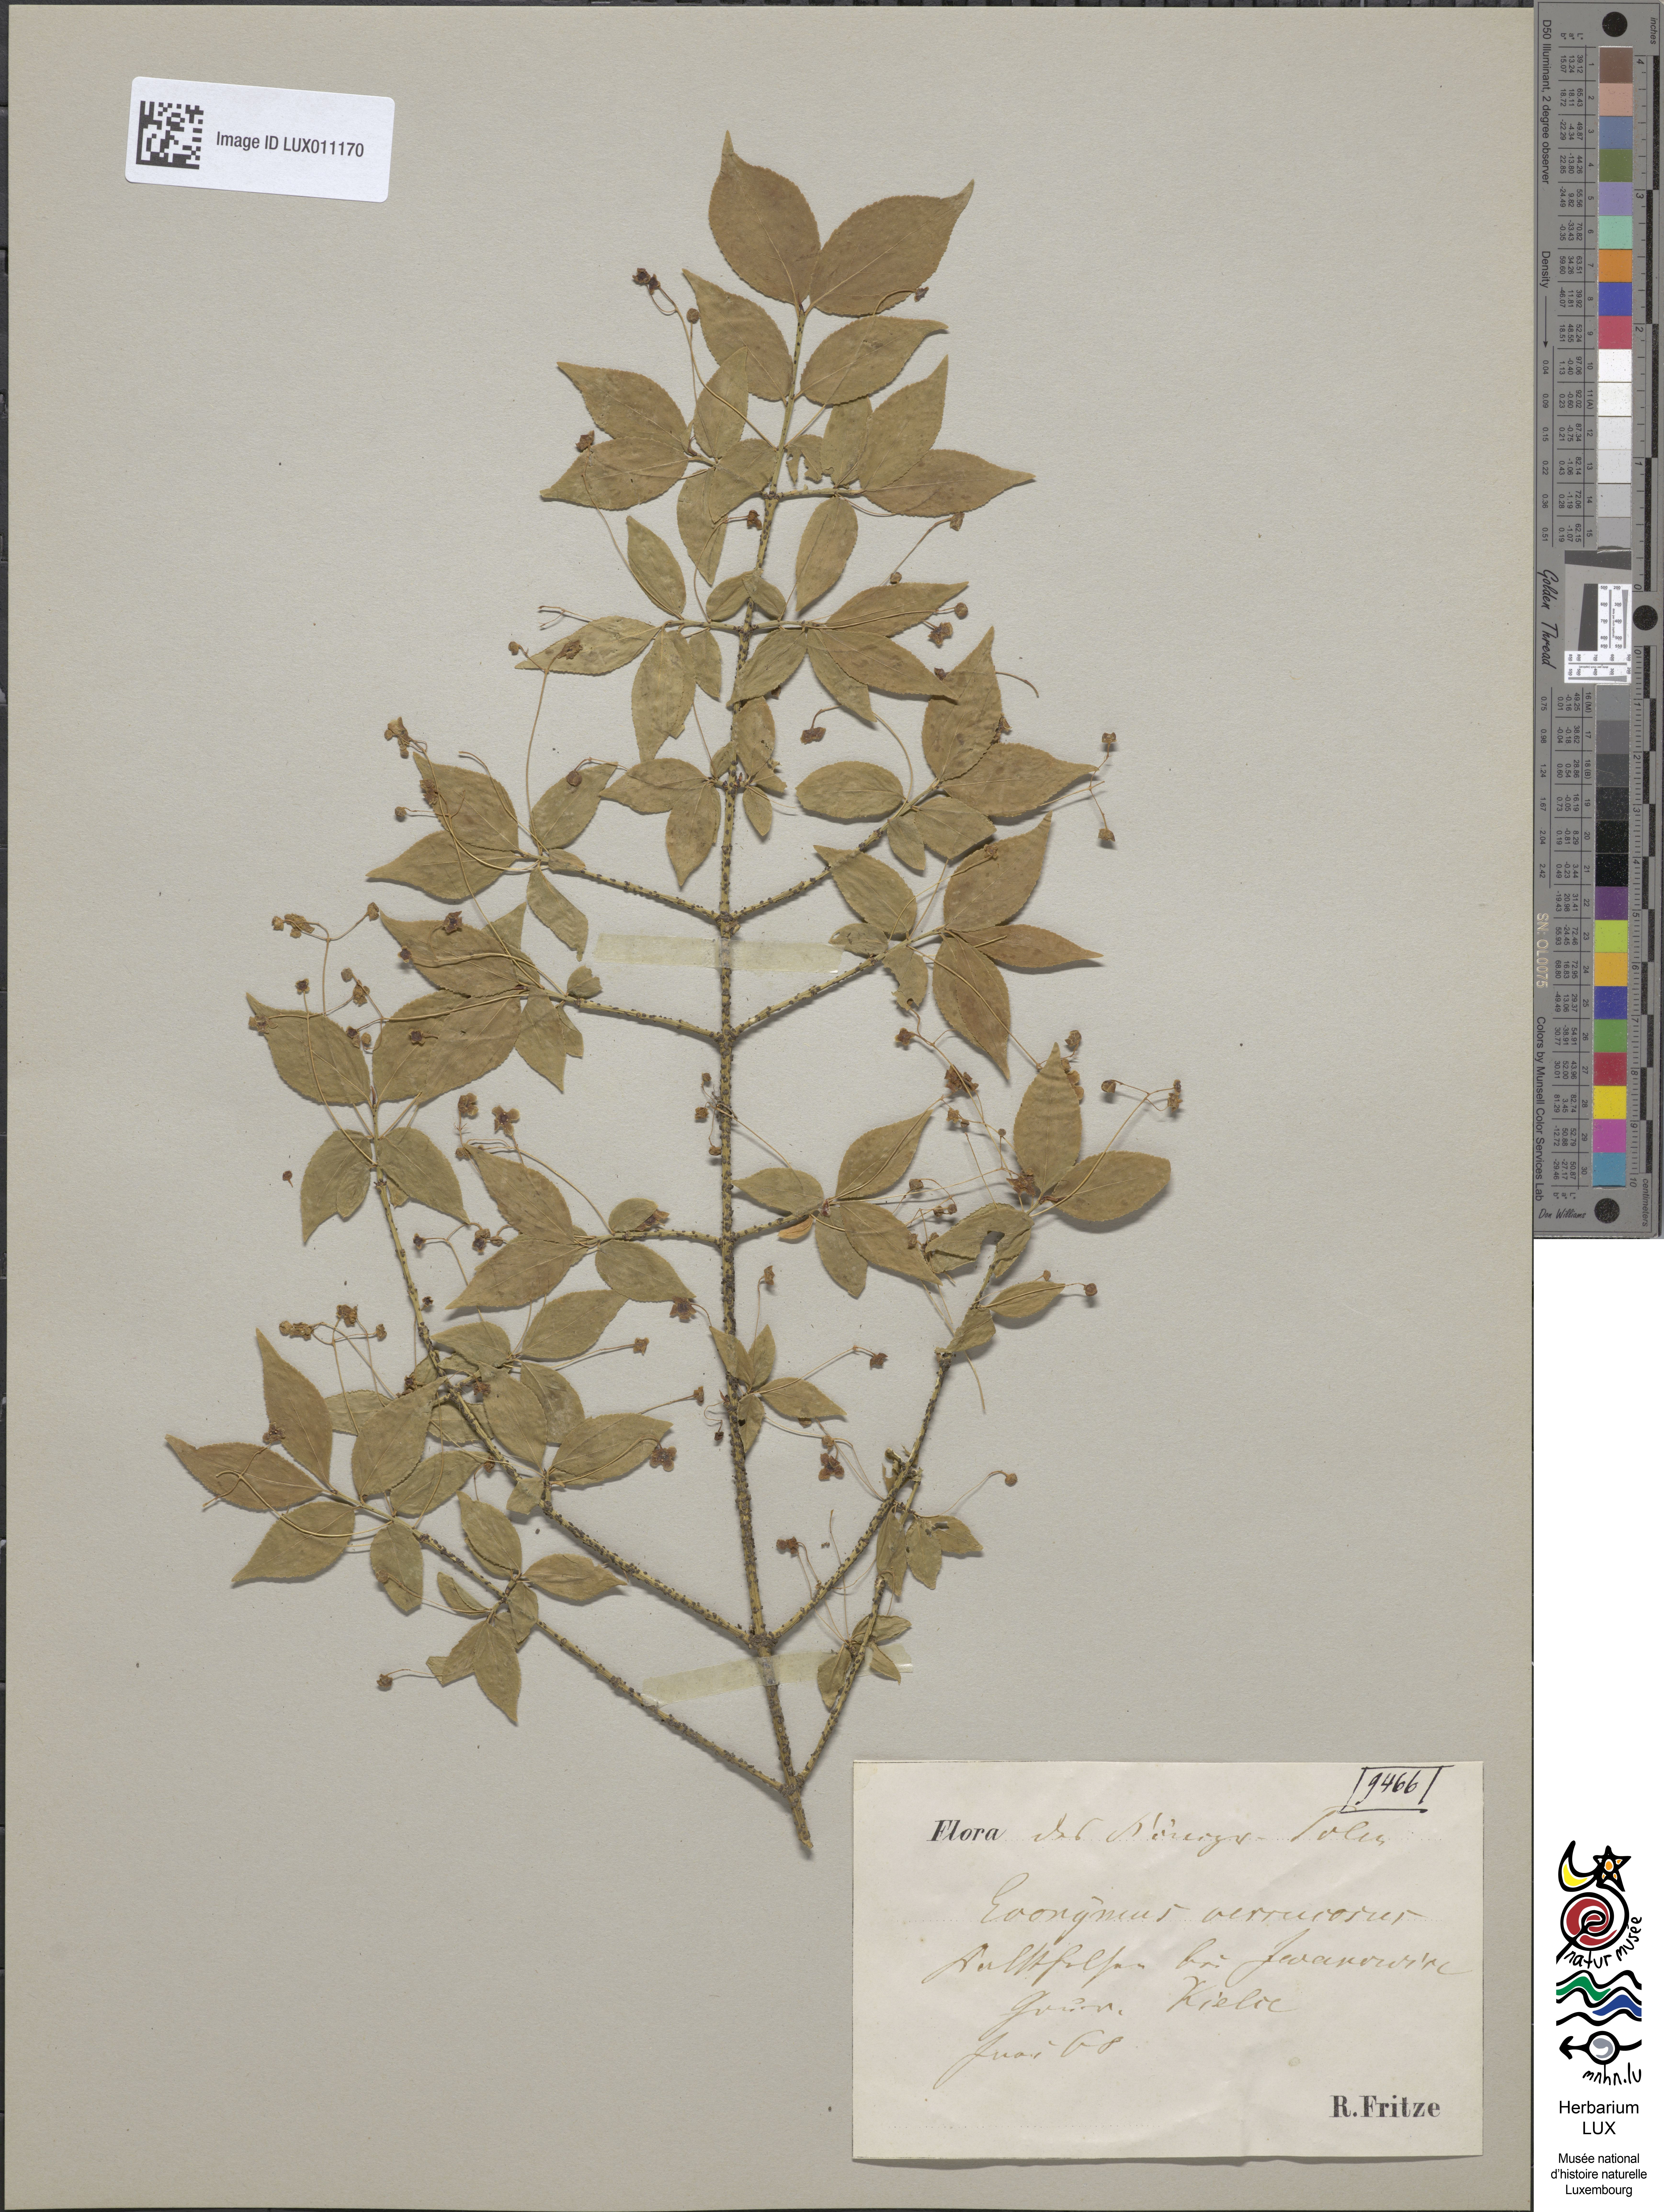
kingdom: Plantae
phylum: Tracheophyta
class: Magnoliopsida
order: Celastrales
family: Celastraceae
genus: Euonymus
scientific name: Euonymus verrucosus
